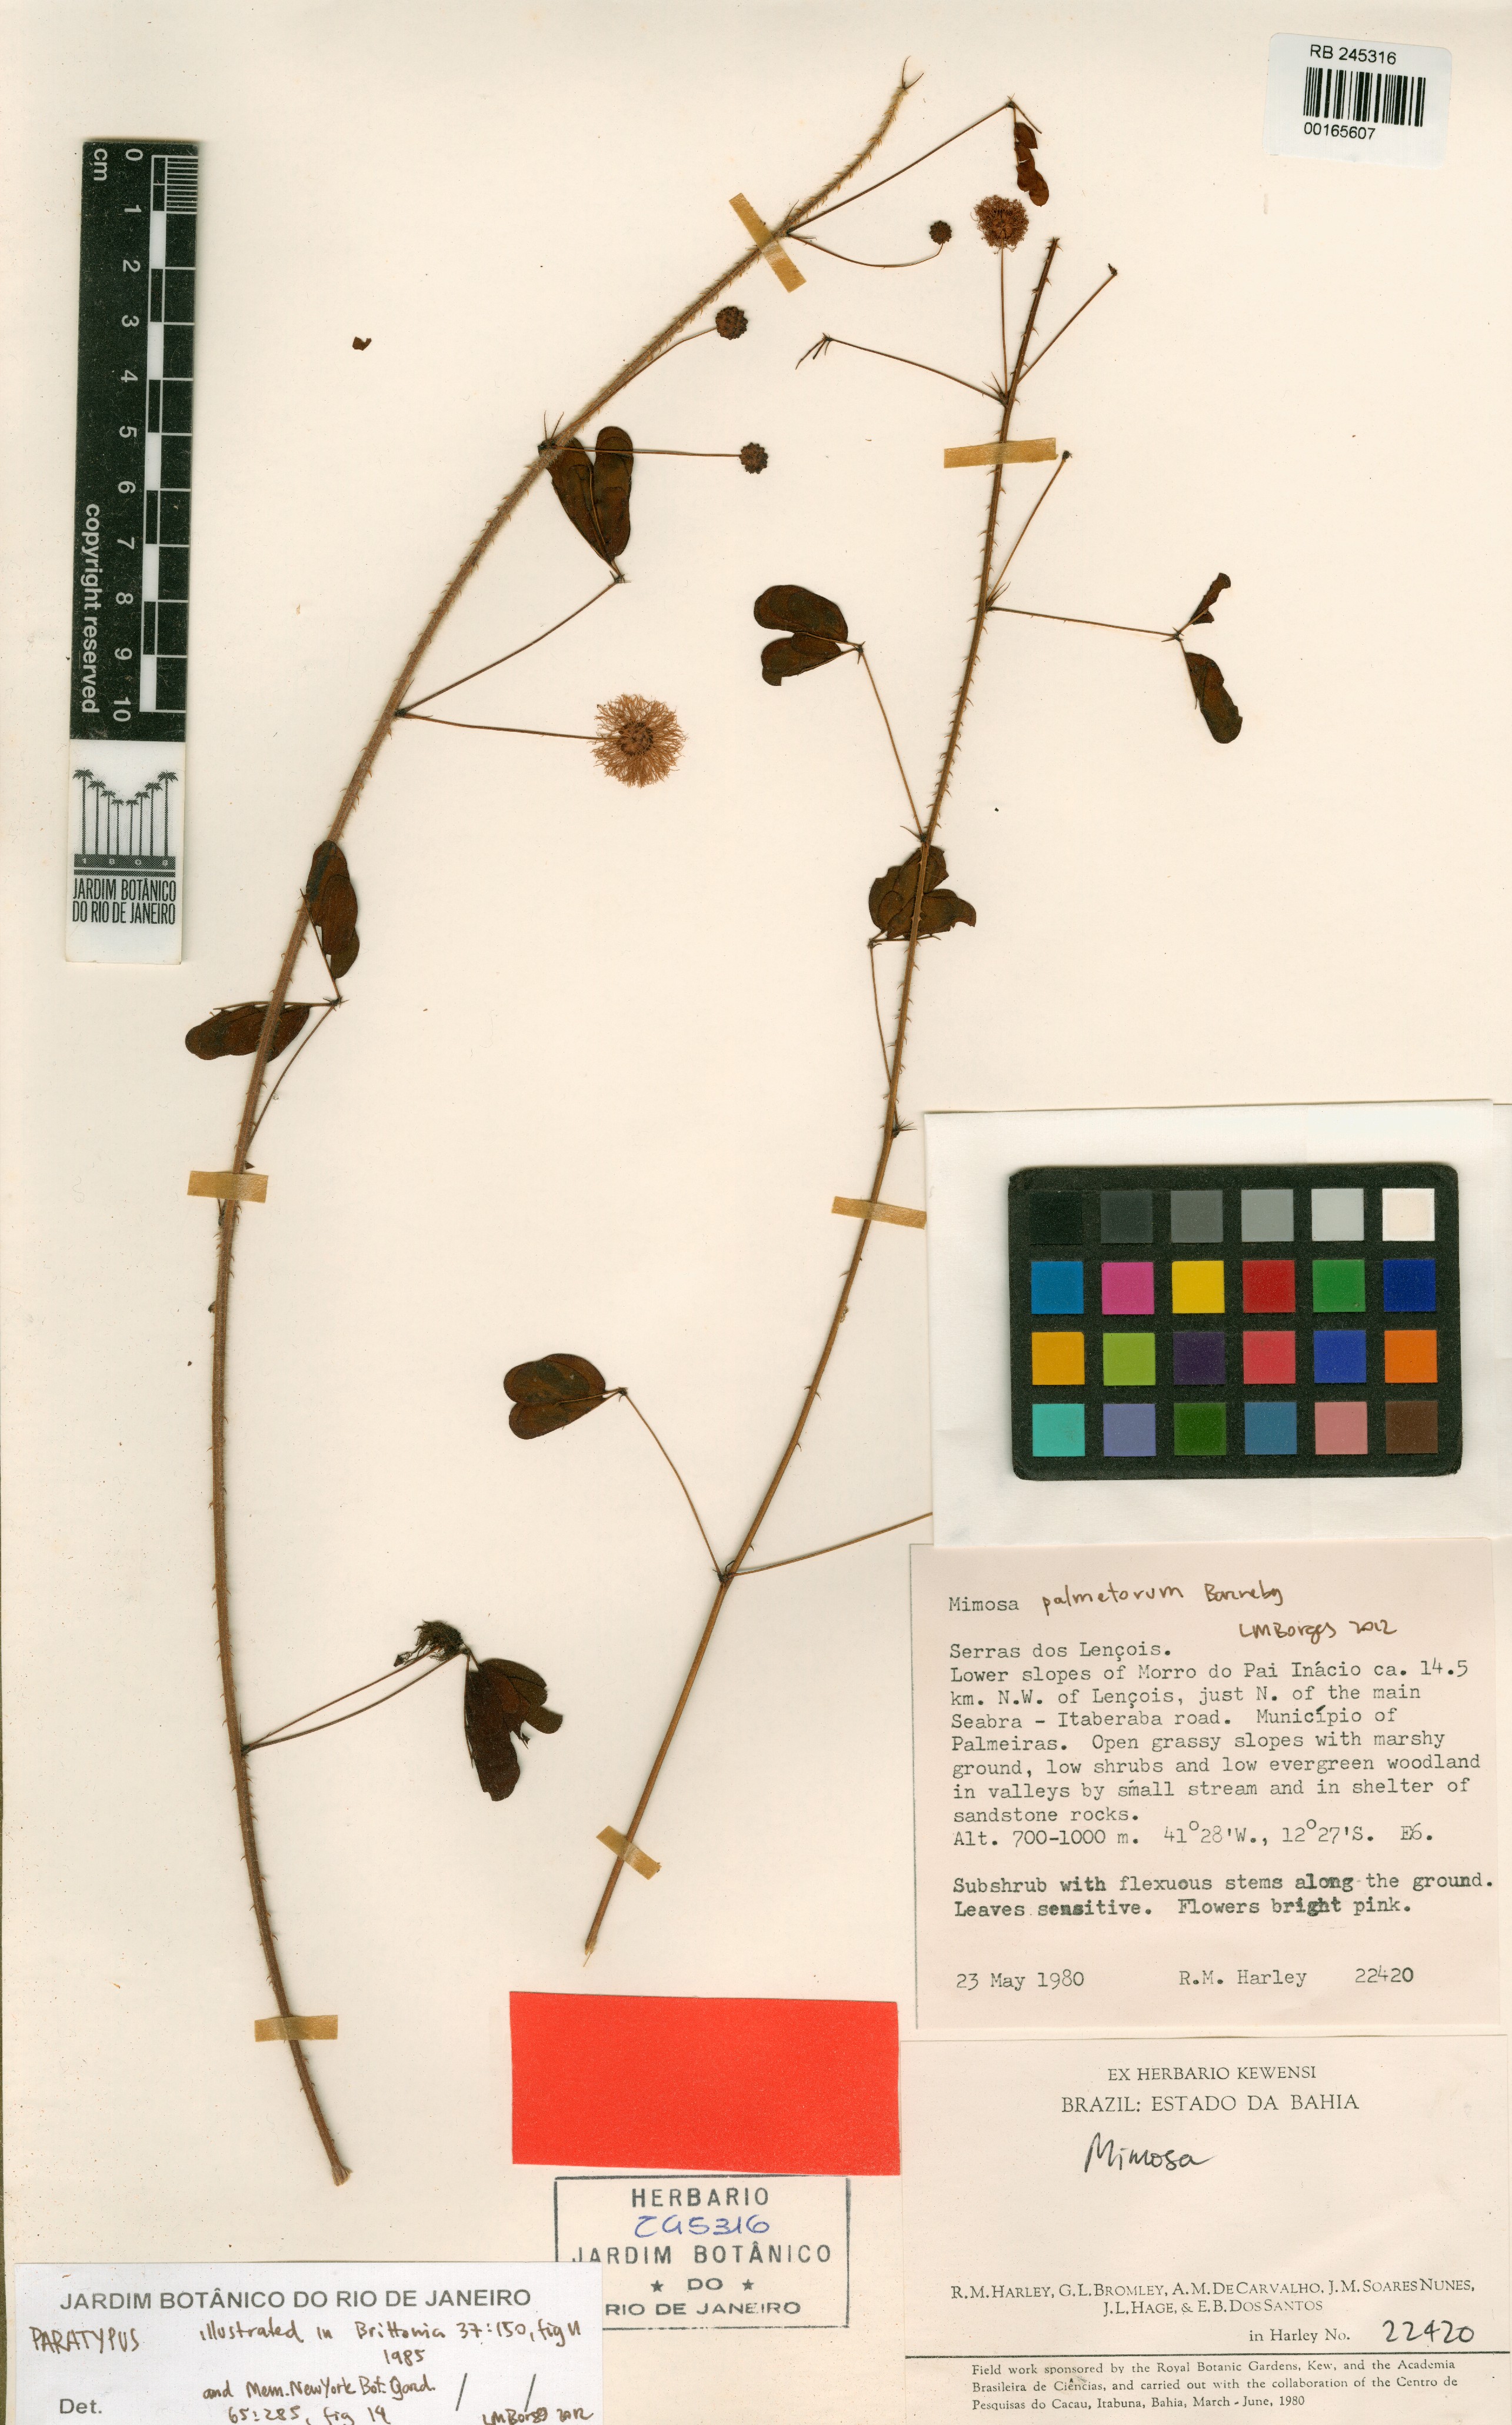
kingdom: Plantae
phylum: Tracheophyta
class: Magnoliopsida
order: Fabales
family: Fabaceae
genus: Mimosa
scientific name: Mimosa palmetorum
